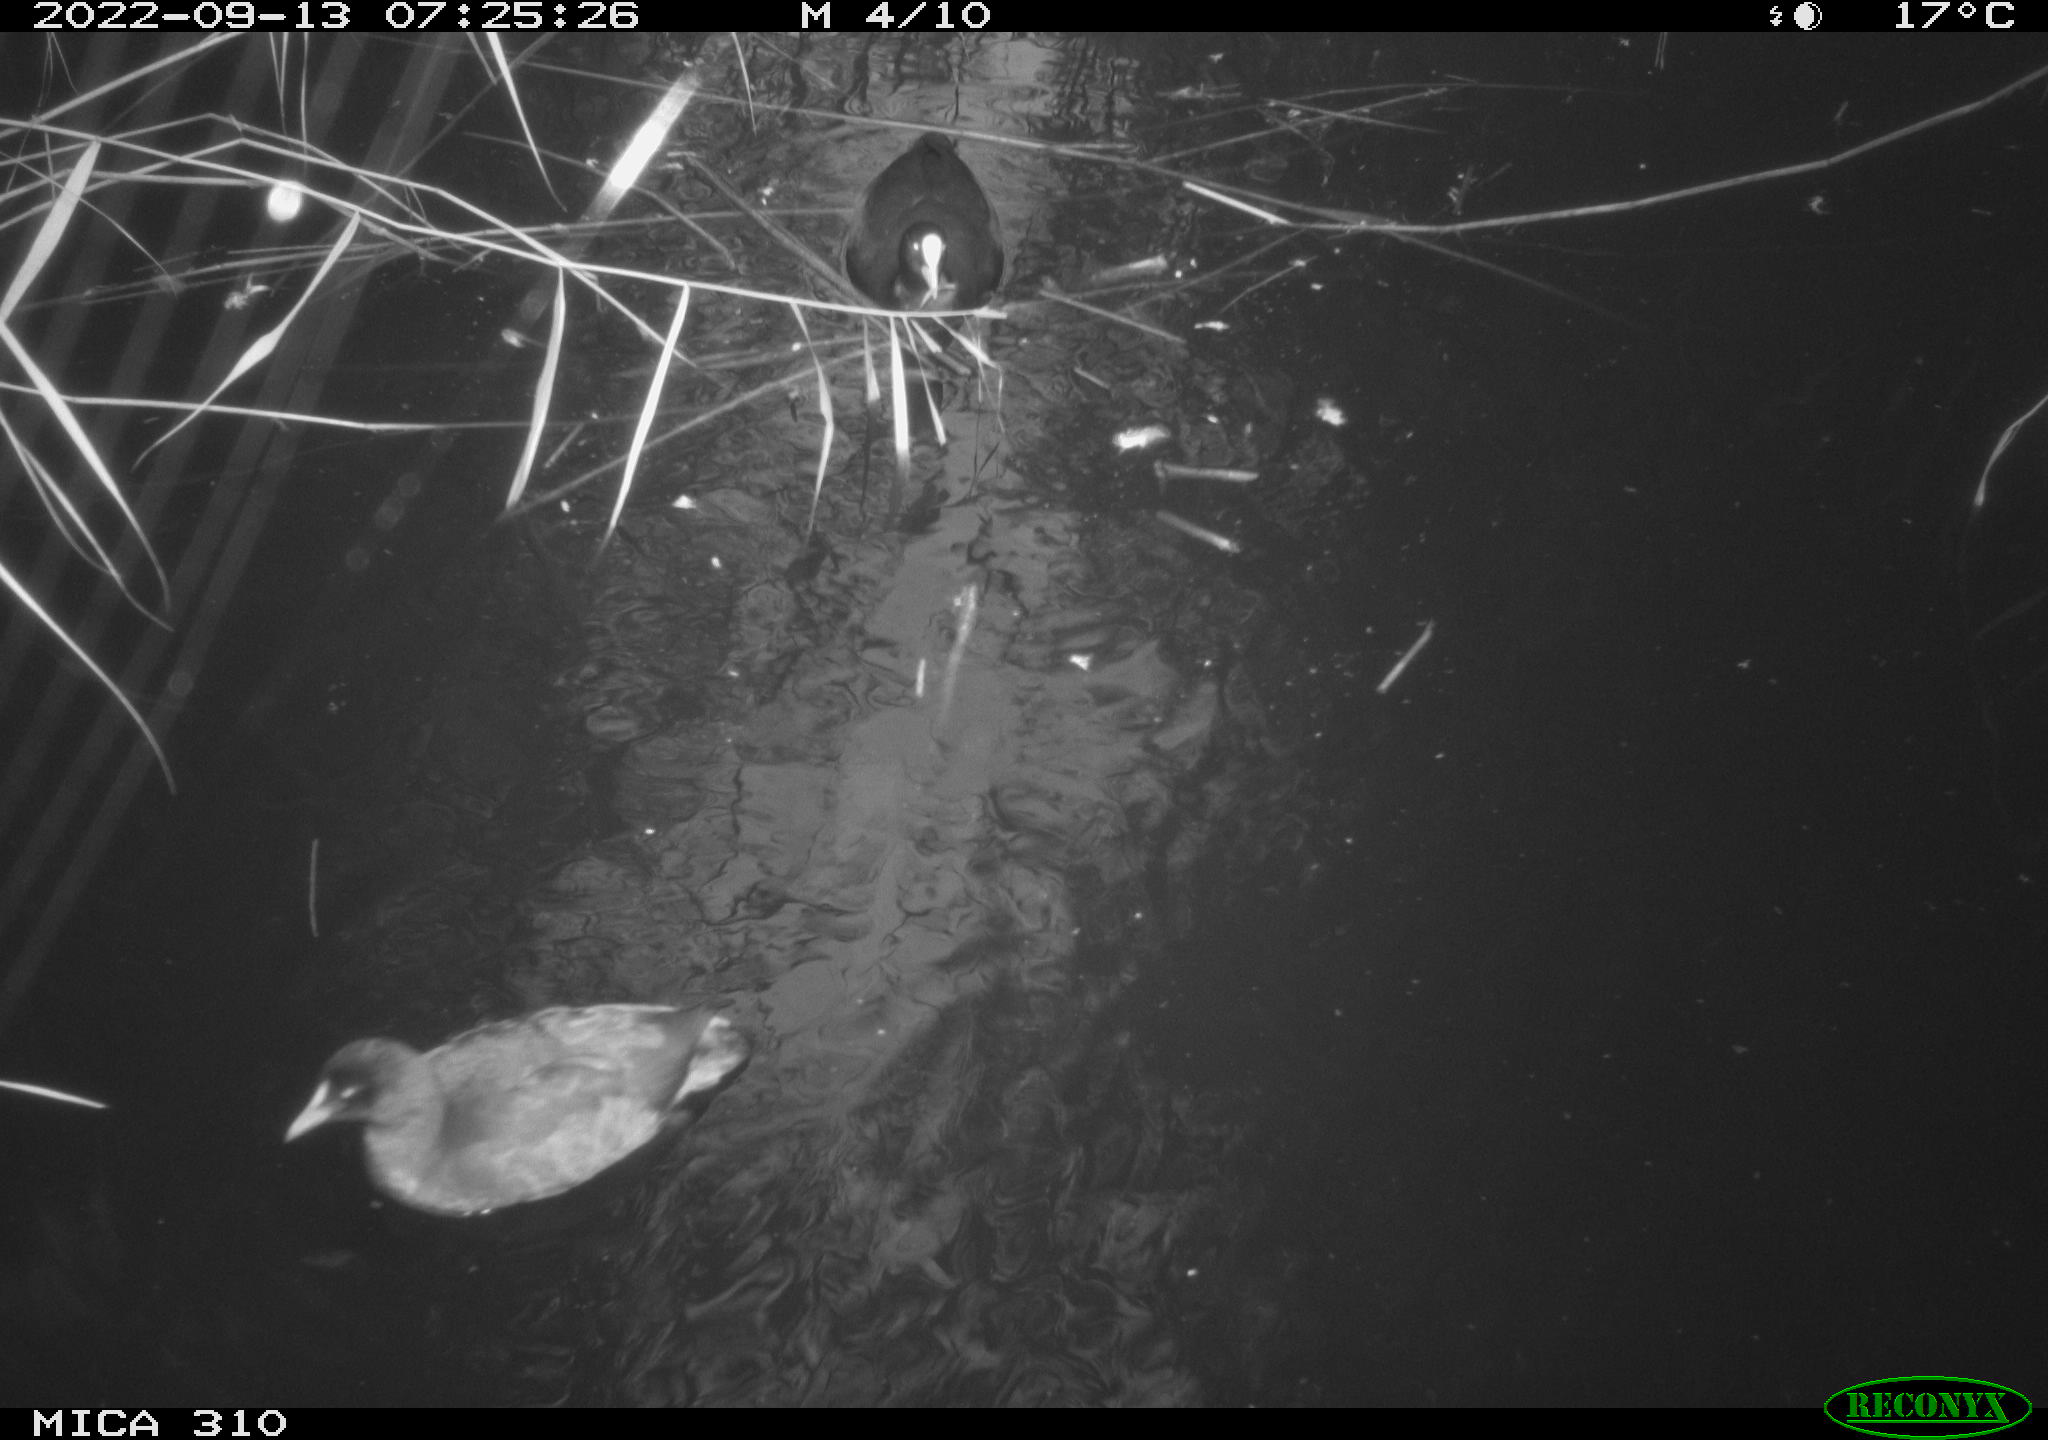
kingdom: Animalia
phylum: Chordata
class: Aves
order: Gruiformes
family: Rallidae
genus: Gallinula
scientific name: Gallinula chloropus
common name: Common moorhen
